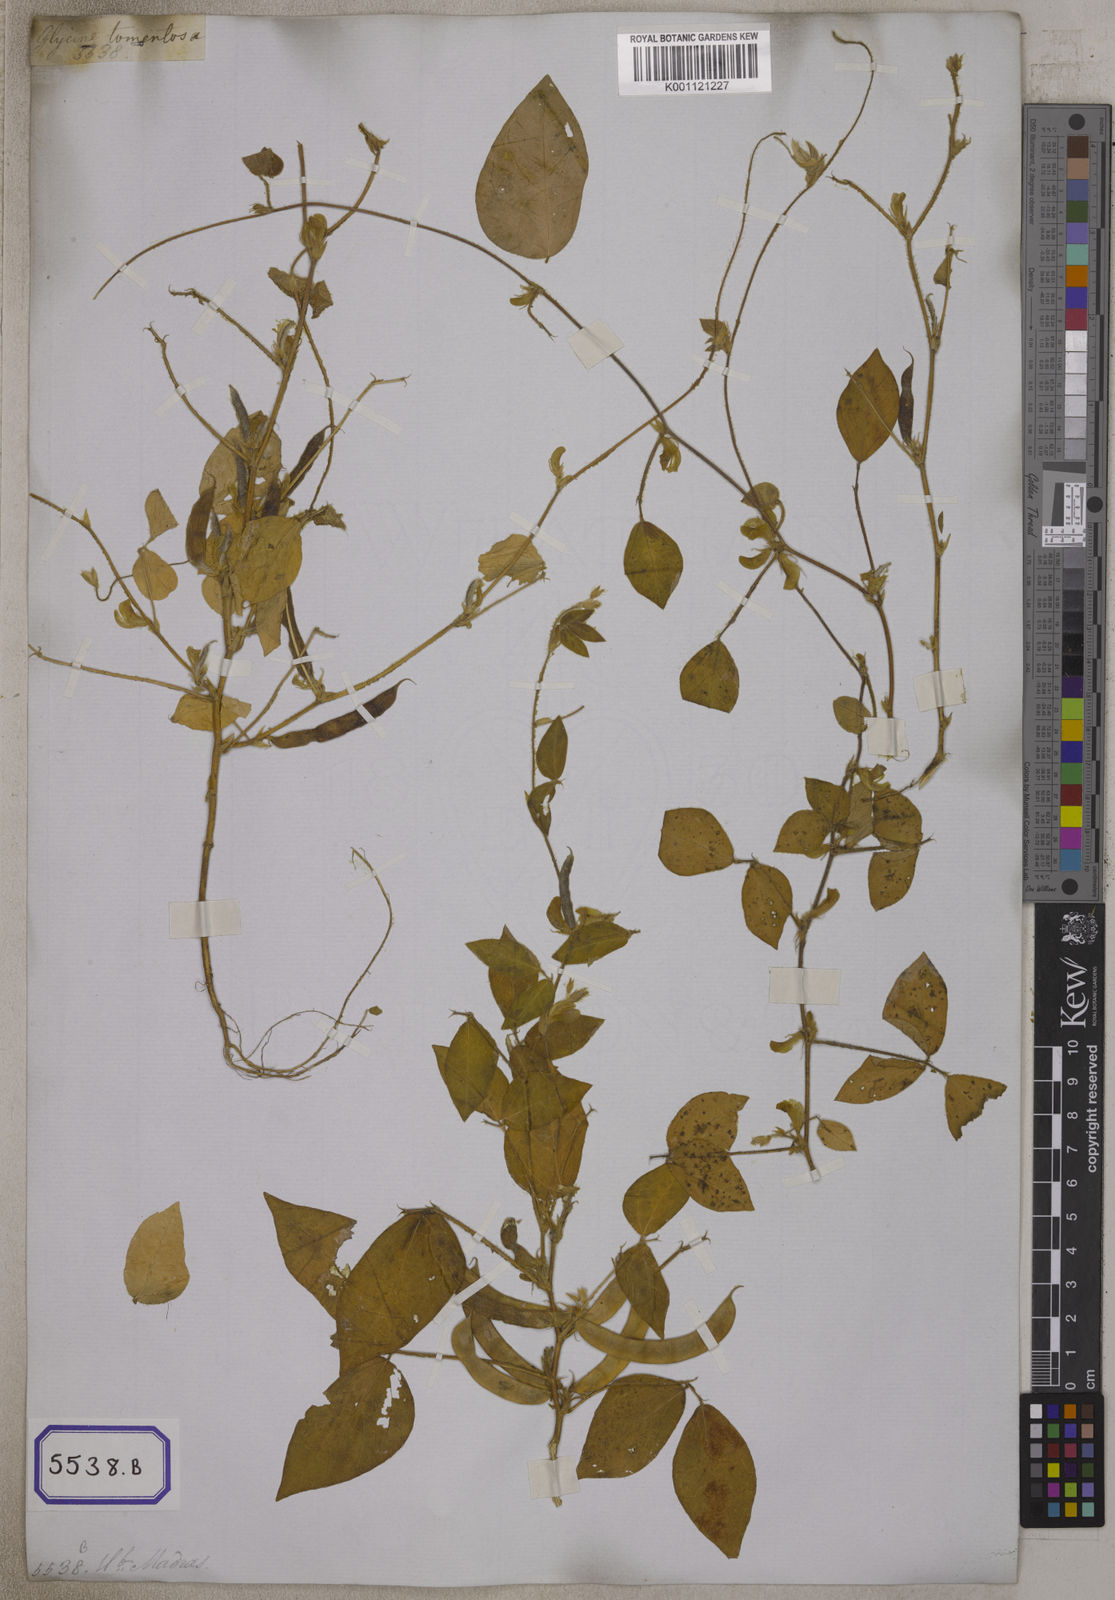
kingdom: Plantae
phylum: Tracheophyta
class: Magnoliopsida
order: Fabales
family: Fabaceae
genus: Macrotyloma
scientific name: Macrotyloma uniflorum
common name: Horse gram
